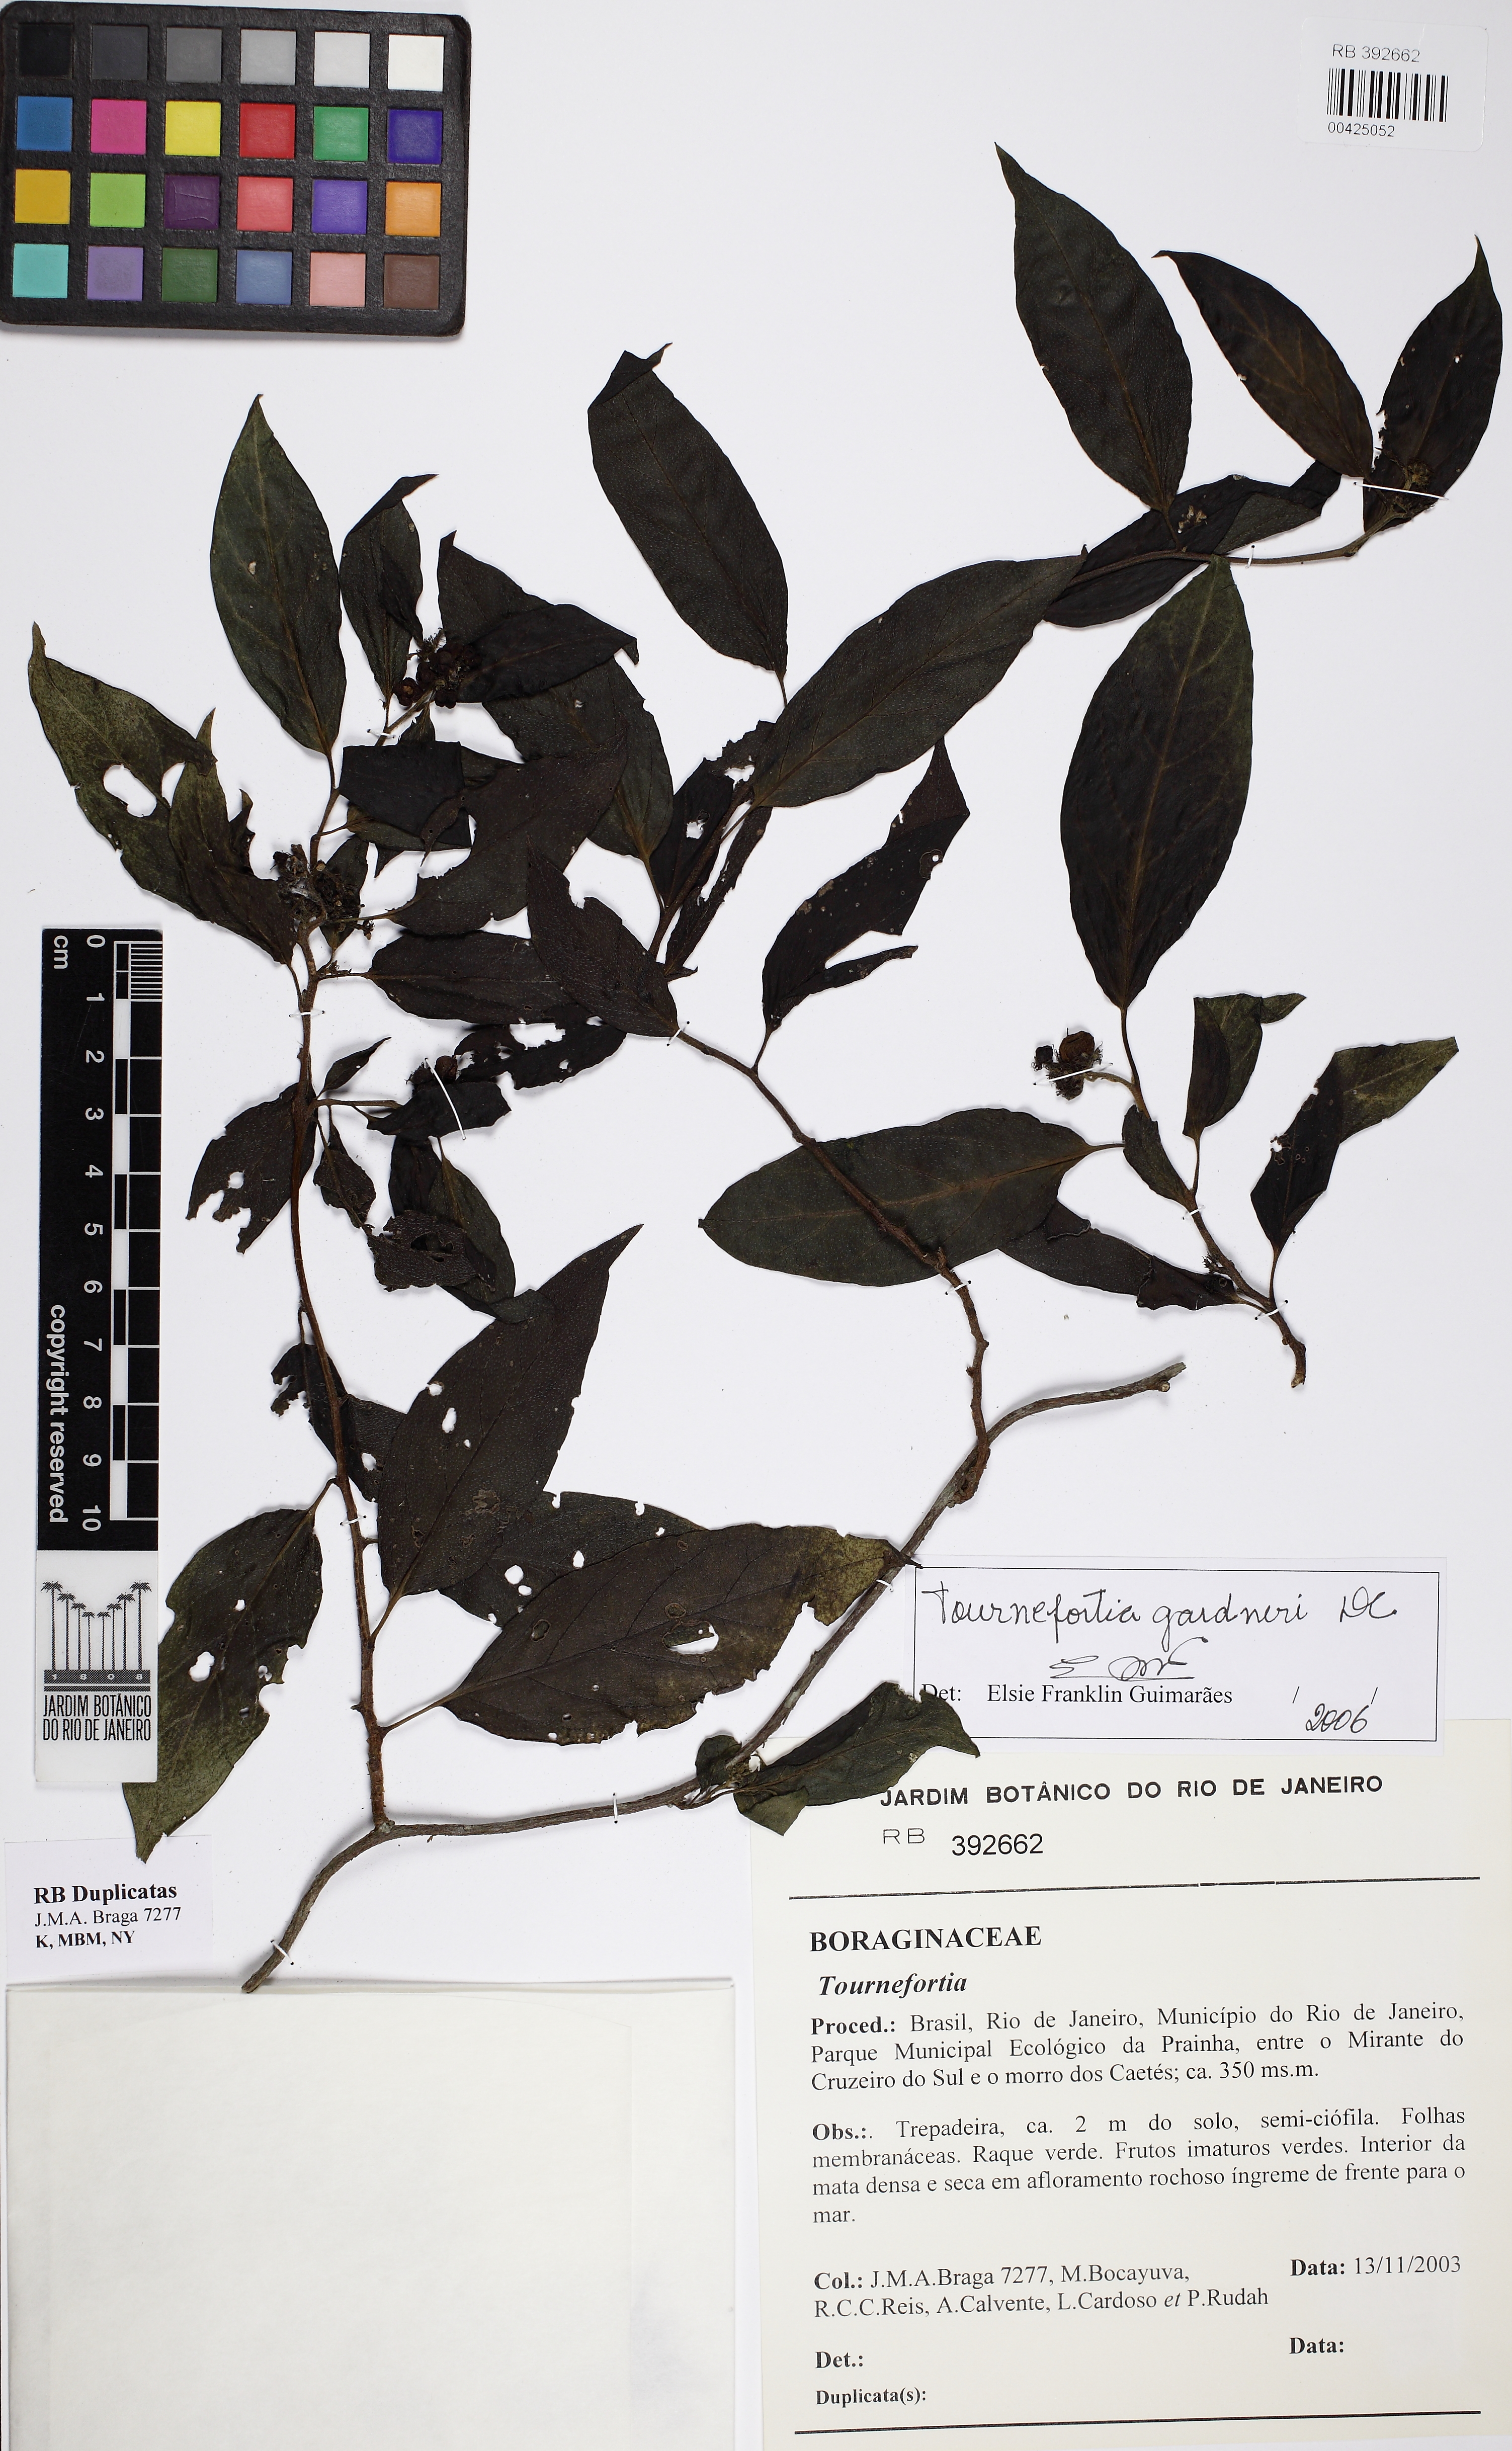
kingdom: Plantae
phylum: Tracheophyta
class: Magnoliopsida
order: Boraginales
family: Heliotropiaceae
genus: Myriopus
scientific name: Myriopus gardneri
